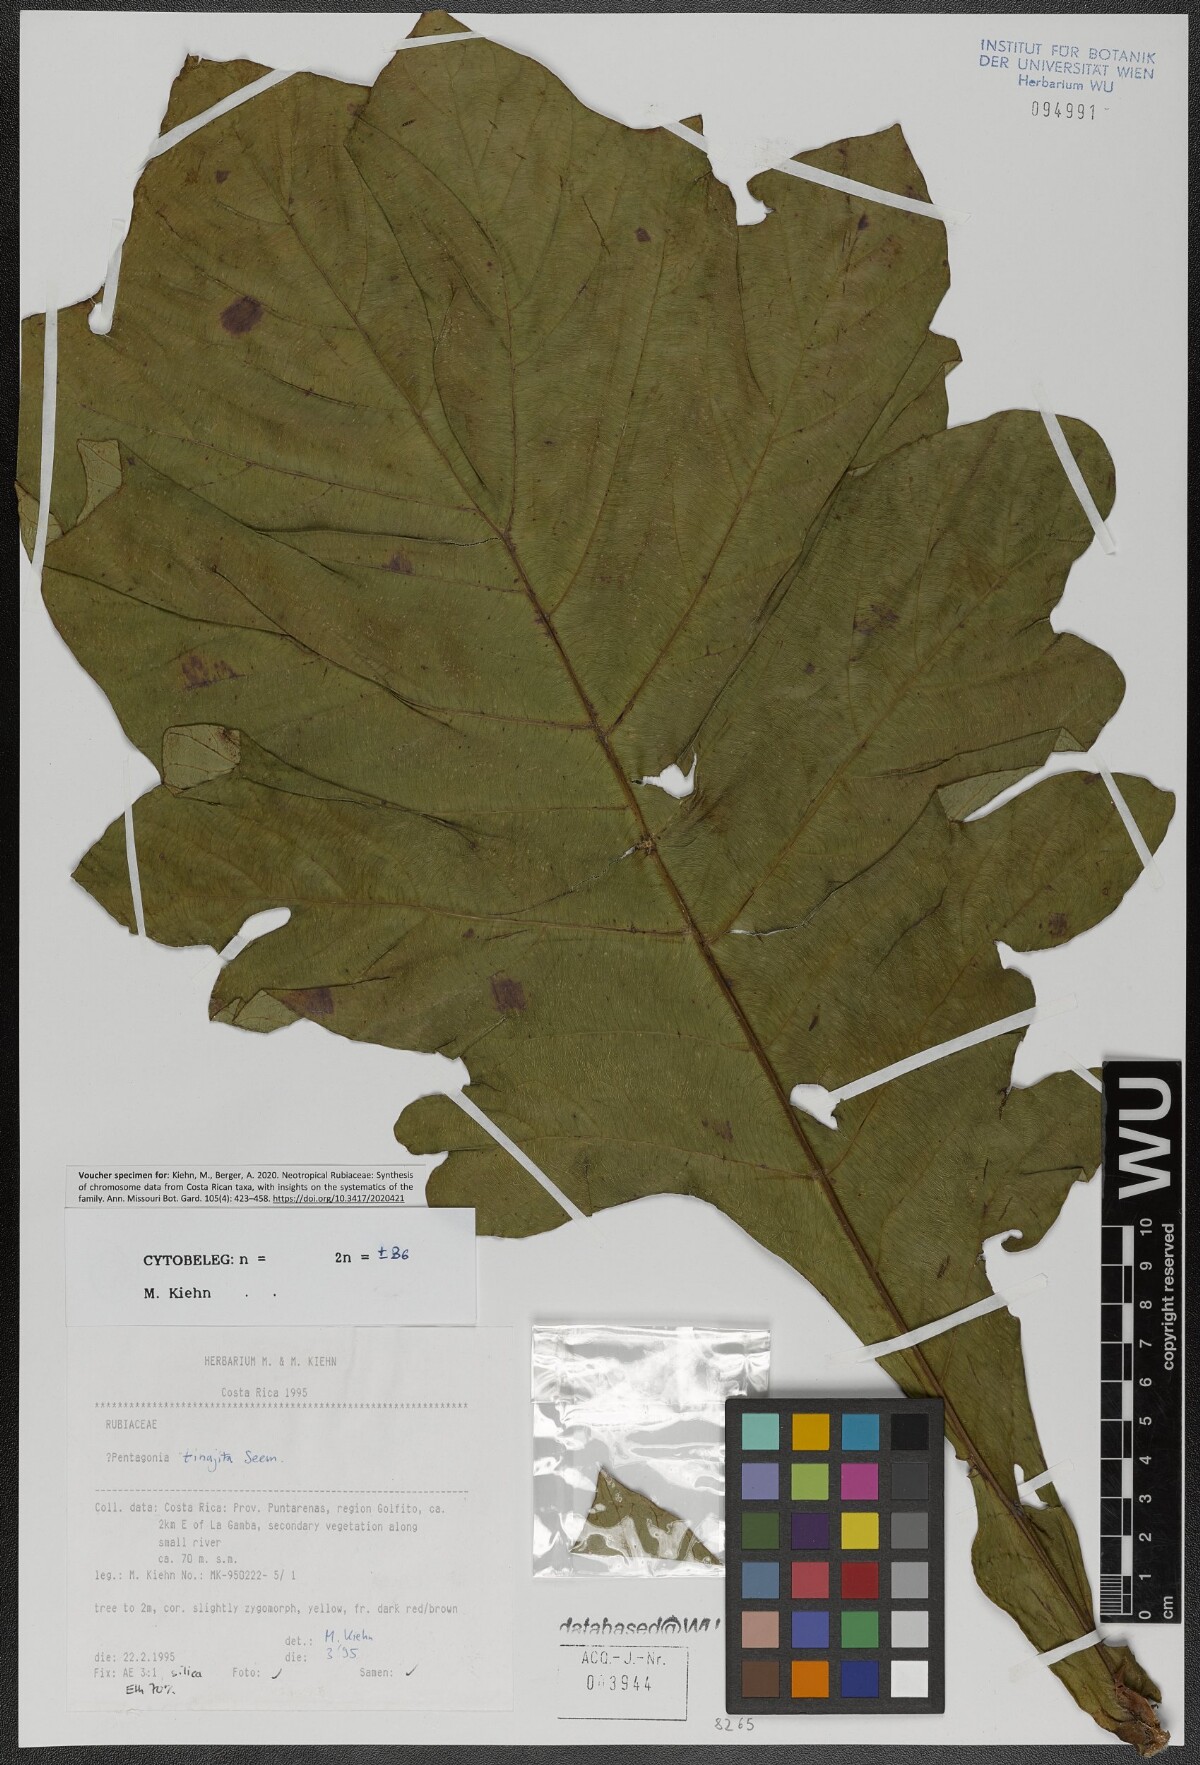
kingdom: Plantae
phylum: Tracheophyta
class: Magnoliopsida
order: Gentianales
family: Rubiaceae
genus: Pentagonia
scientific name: Pentagonia tinajita
